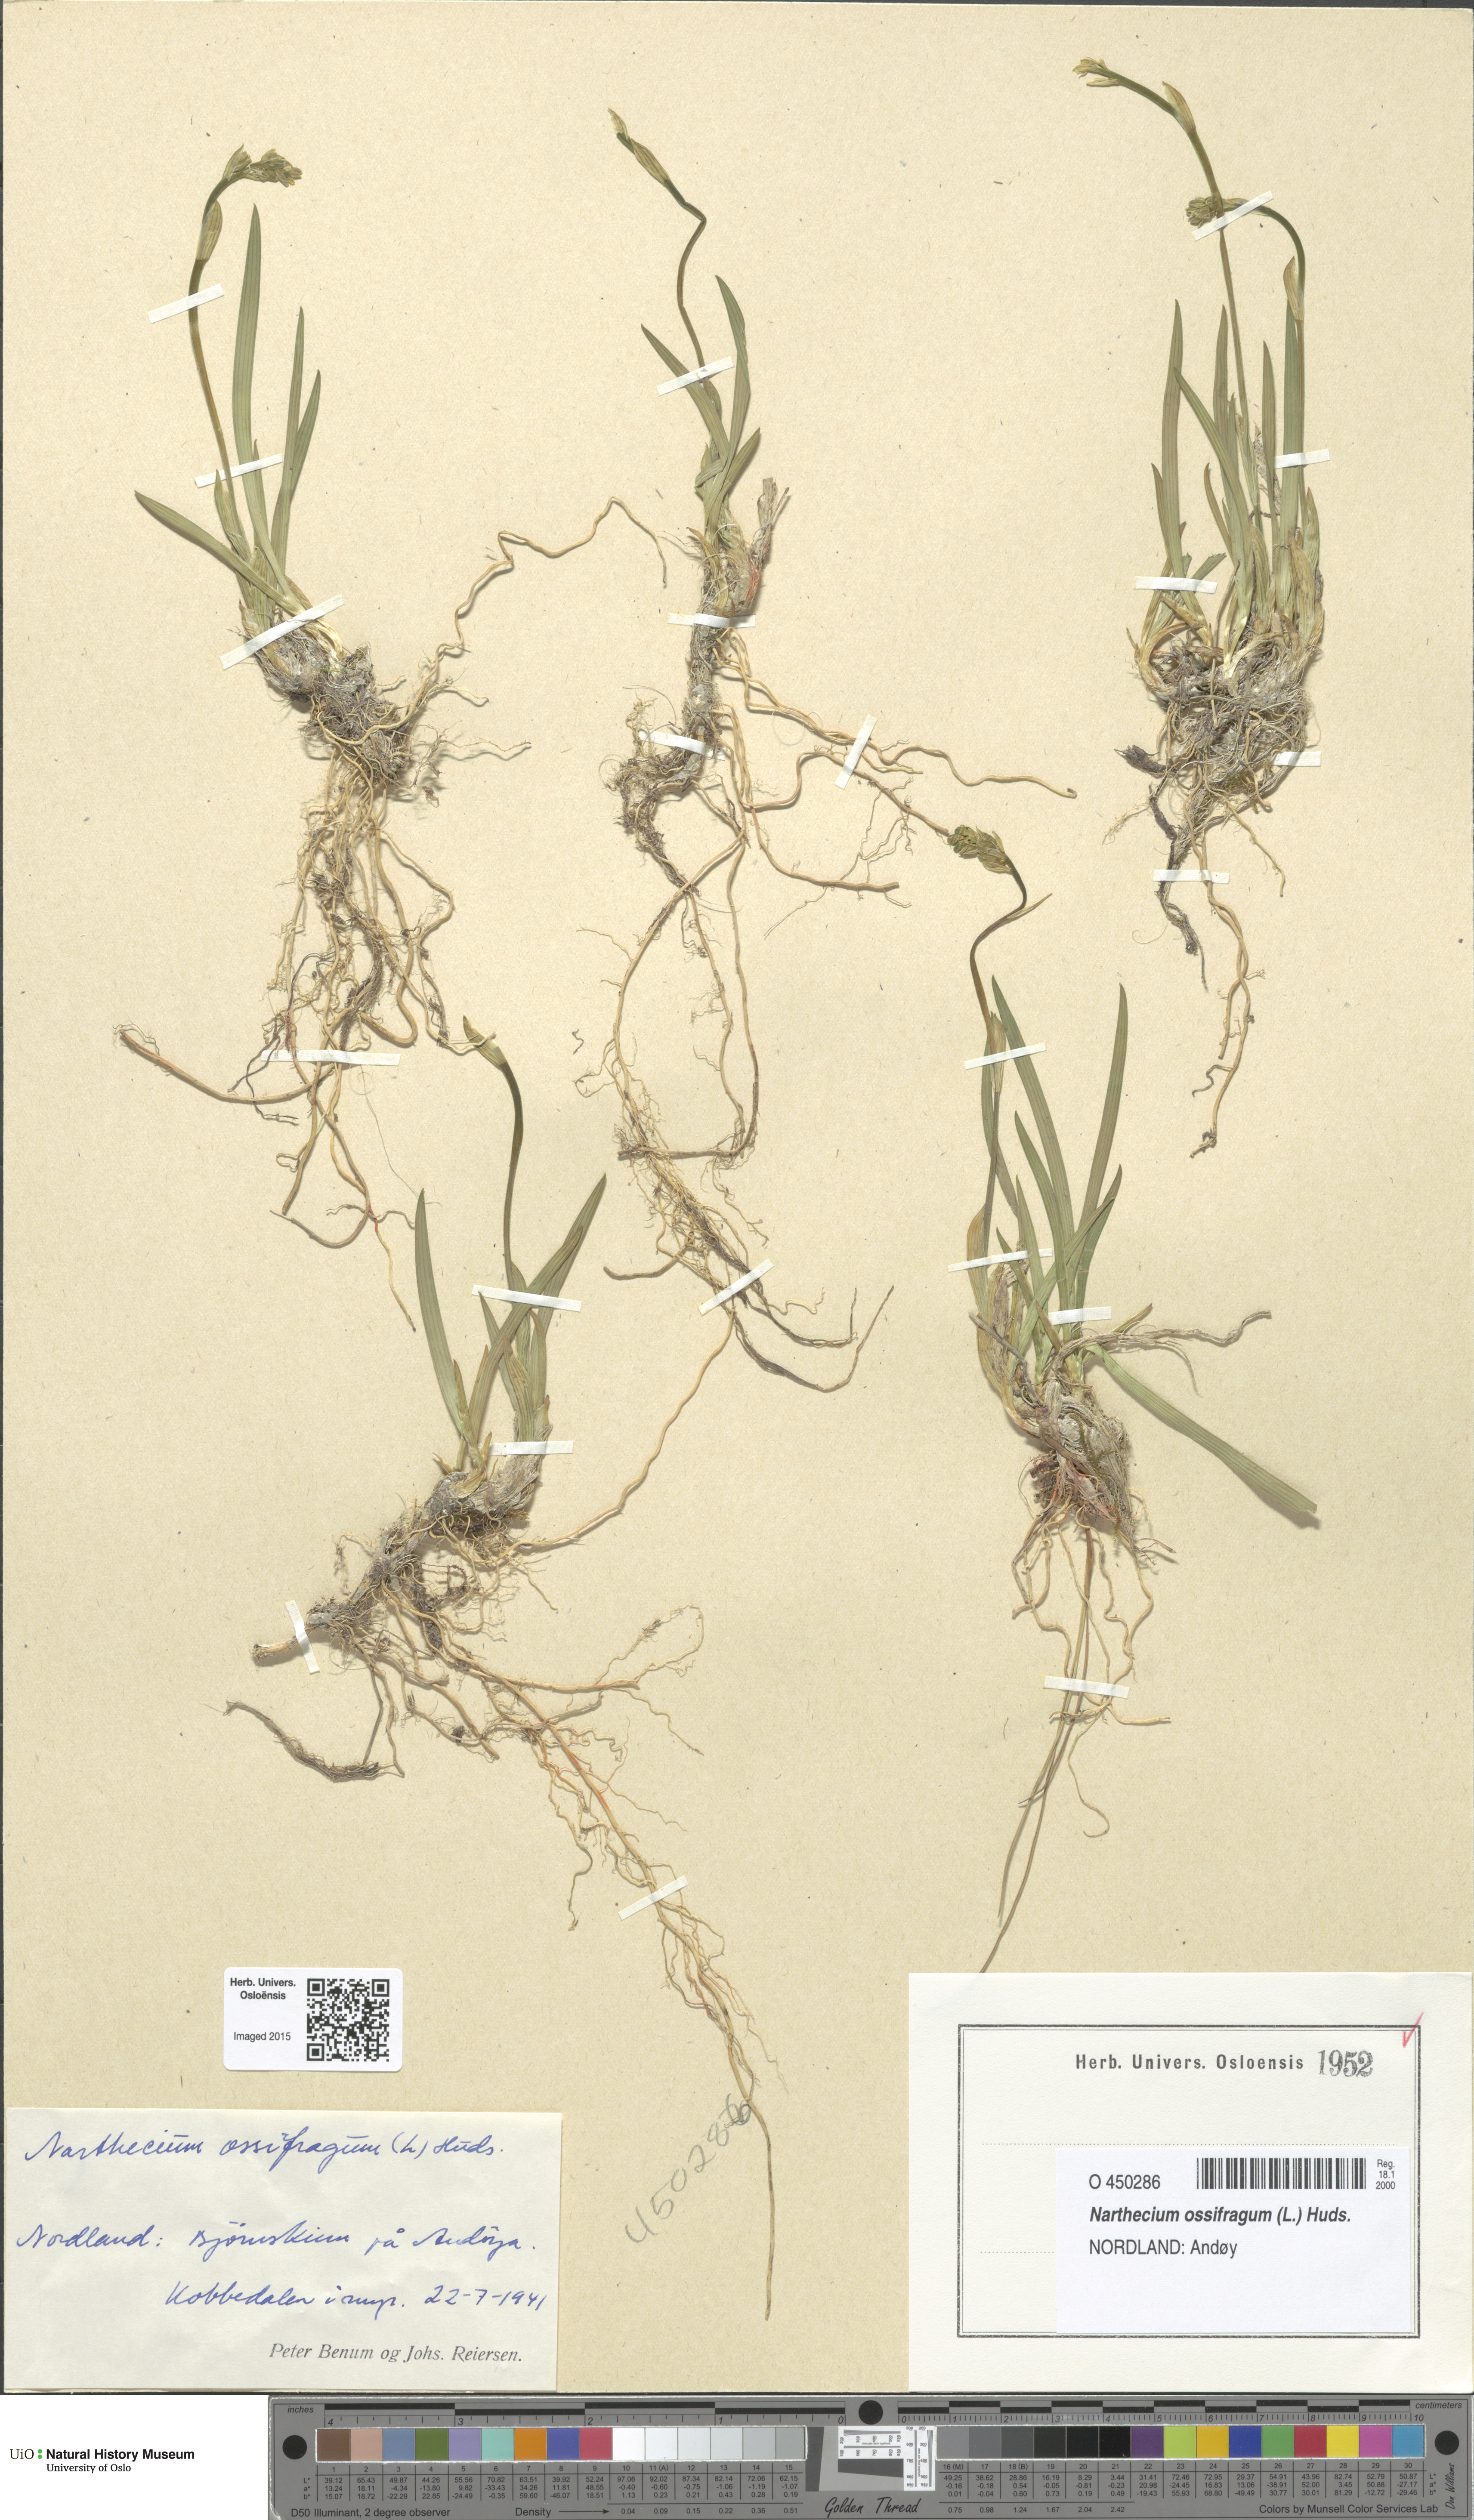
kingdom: Plantae
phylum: Tracheophyta
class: Liliopsida
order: Dioscoreales
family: Nartheciaceae
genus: Narthecium
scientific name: Narthecium ossifragum
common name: Bog asphodel
